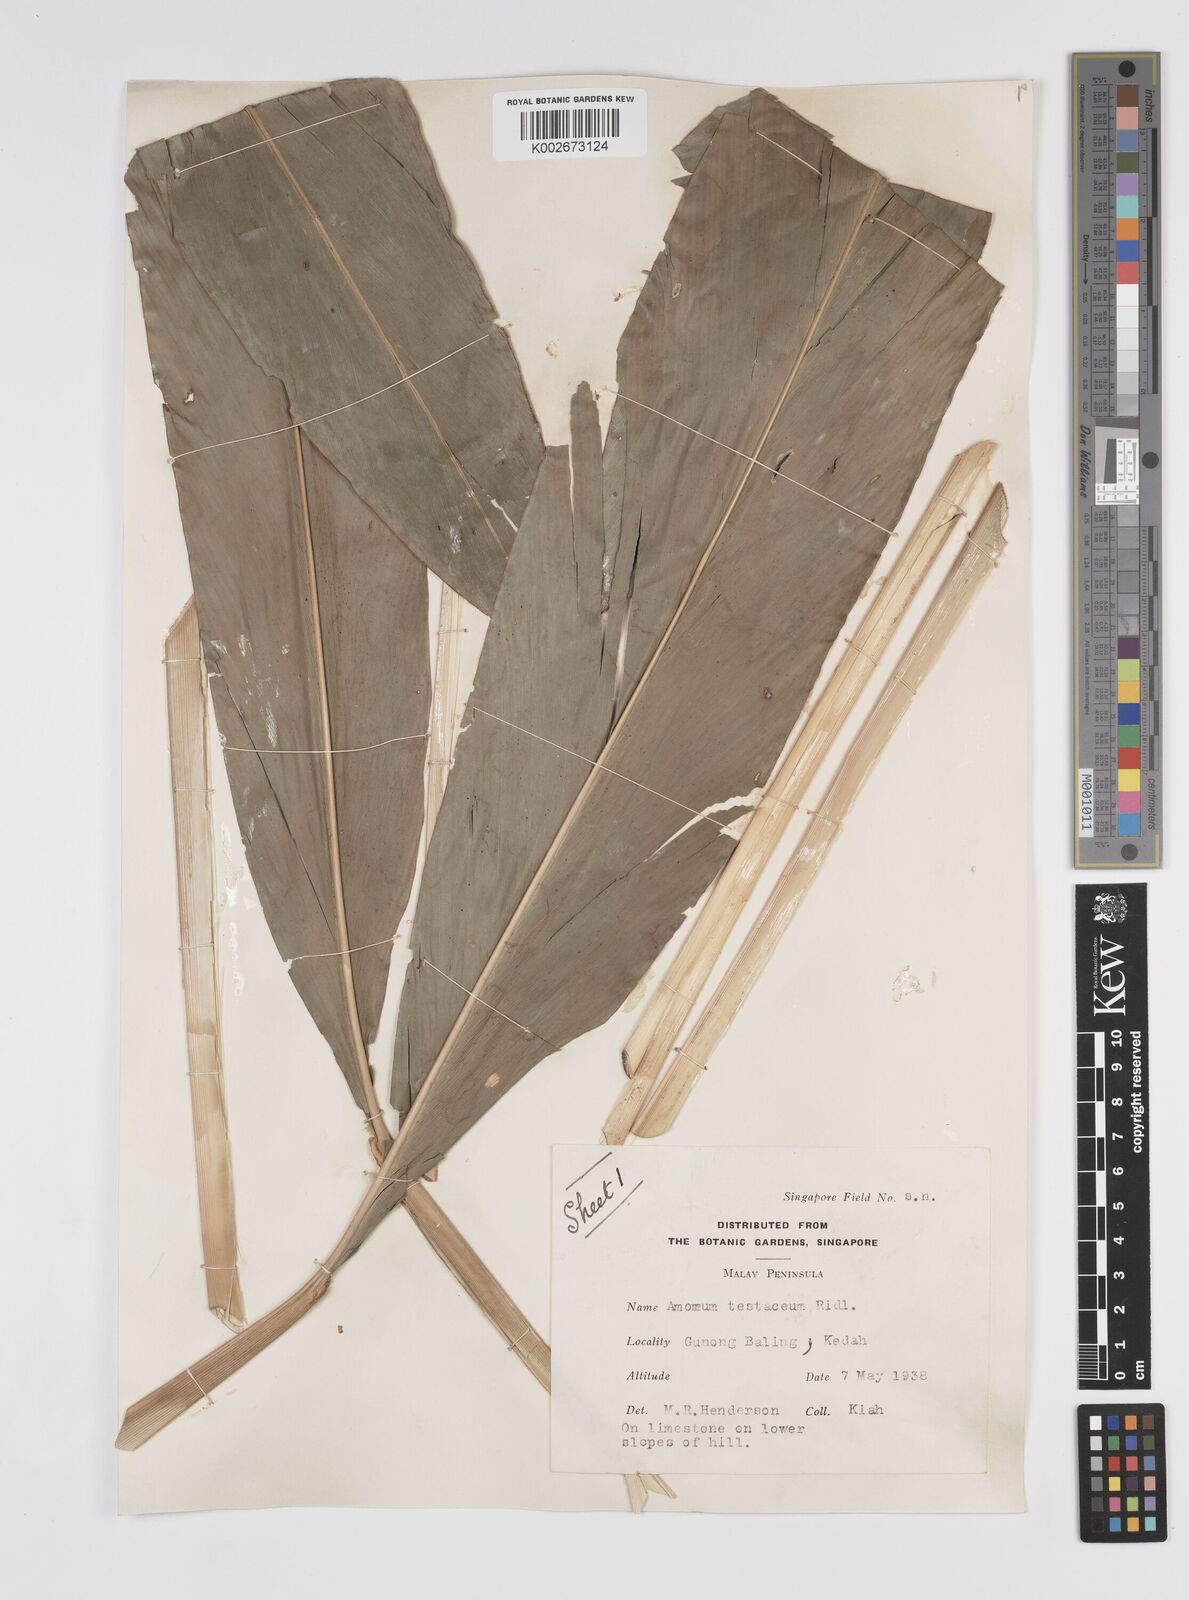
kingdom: Plantae
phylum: Tracheophyta
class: Liliopsida
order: Zingiberales
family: Zingiberaceae
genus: Wurfbainia
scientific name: Wurfbainia testacea
